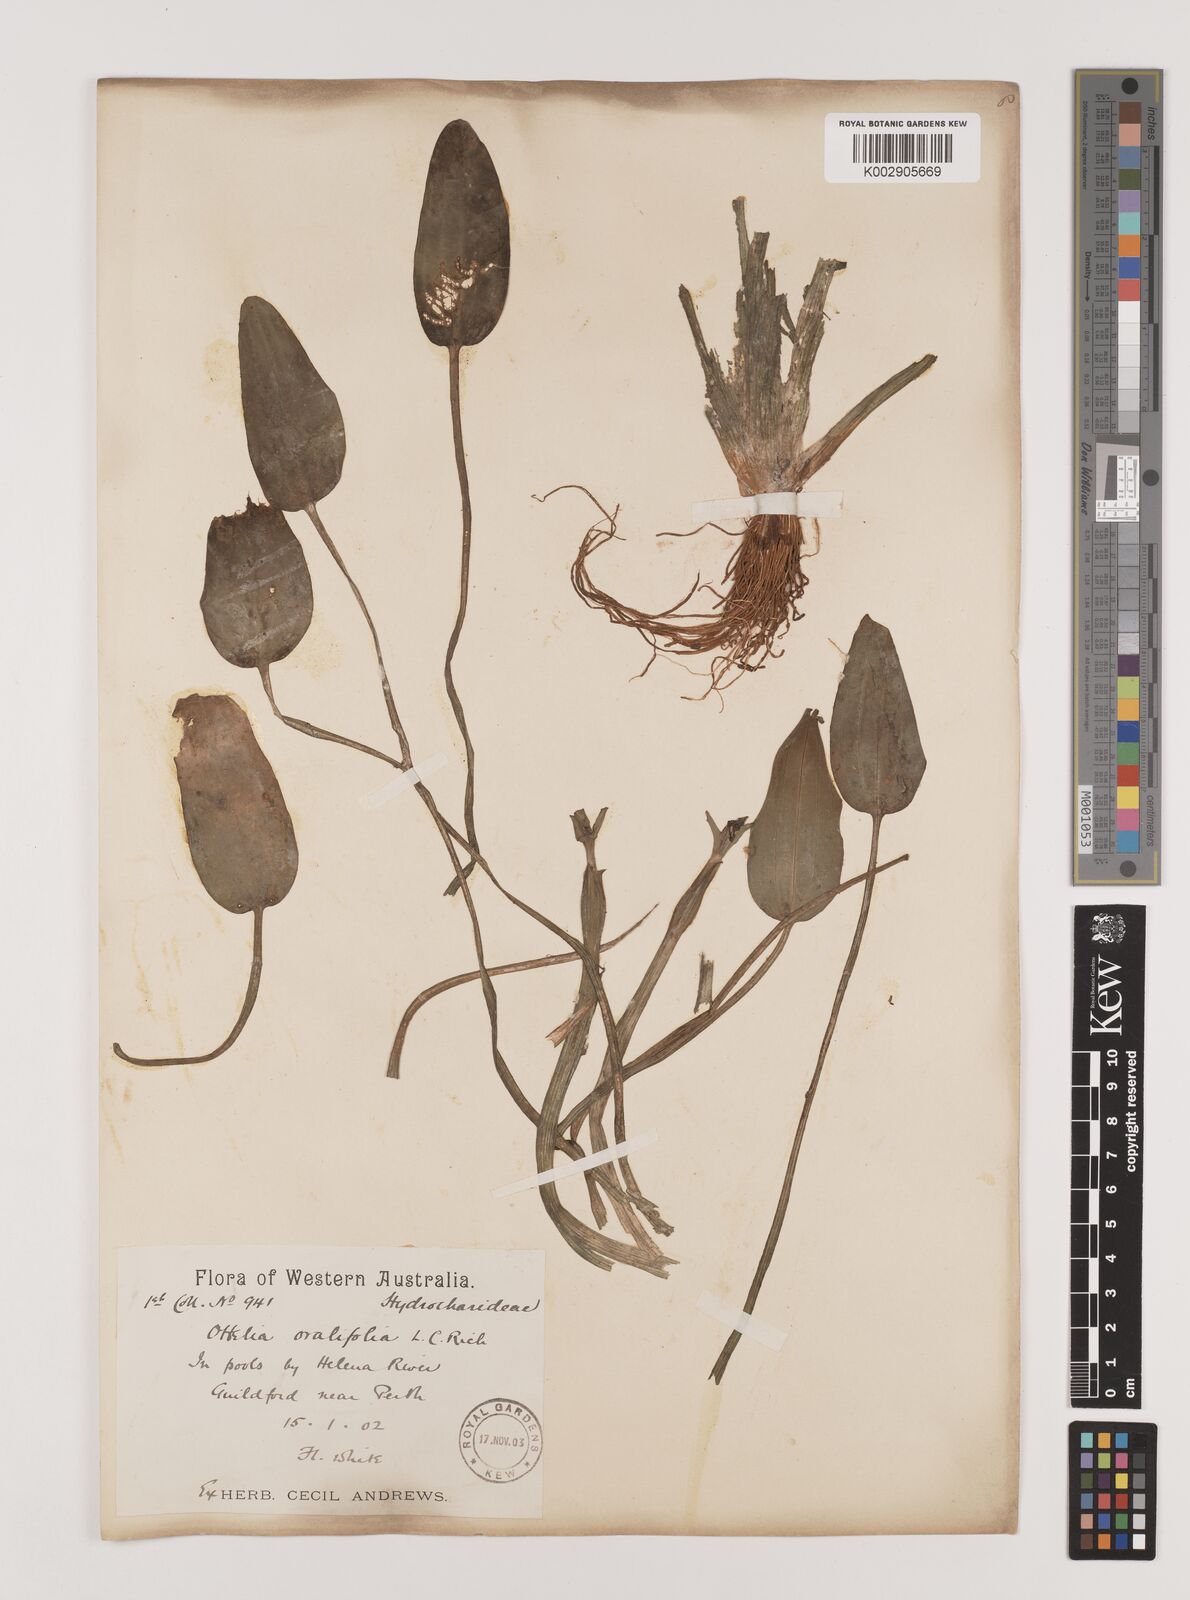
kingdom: Plantae
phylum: Tracheophyta
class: Liliopsida
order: Alismatales
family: Hydrocharitaceae
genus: Ottelia
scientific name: Ottelia ovalifolia
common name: Swamp-lily
